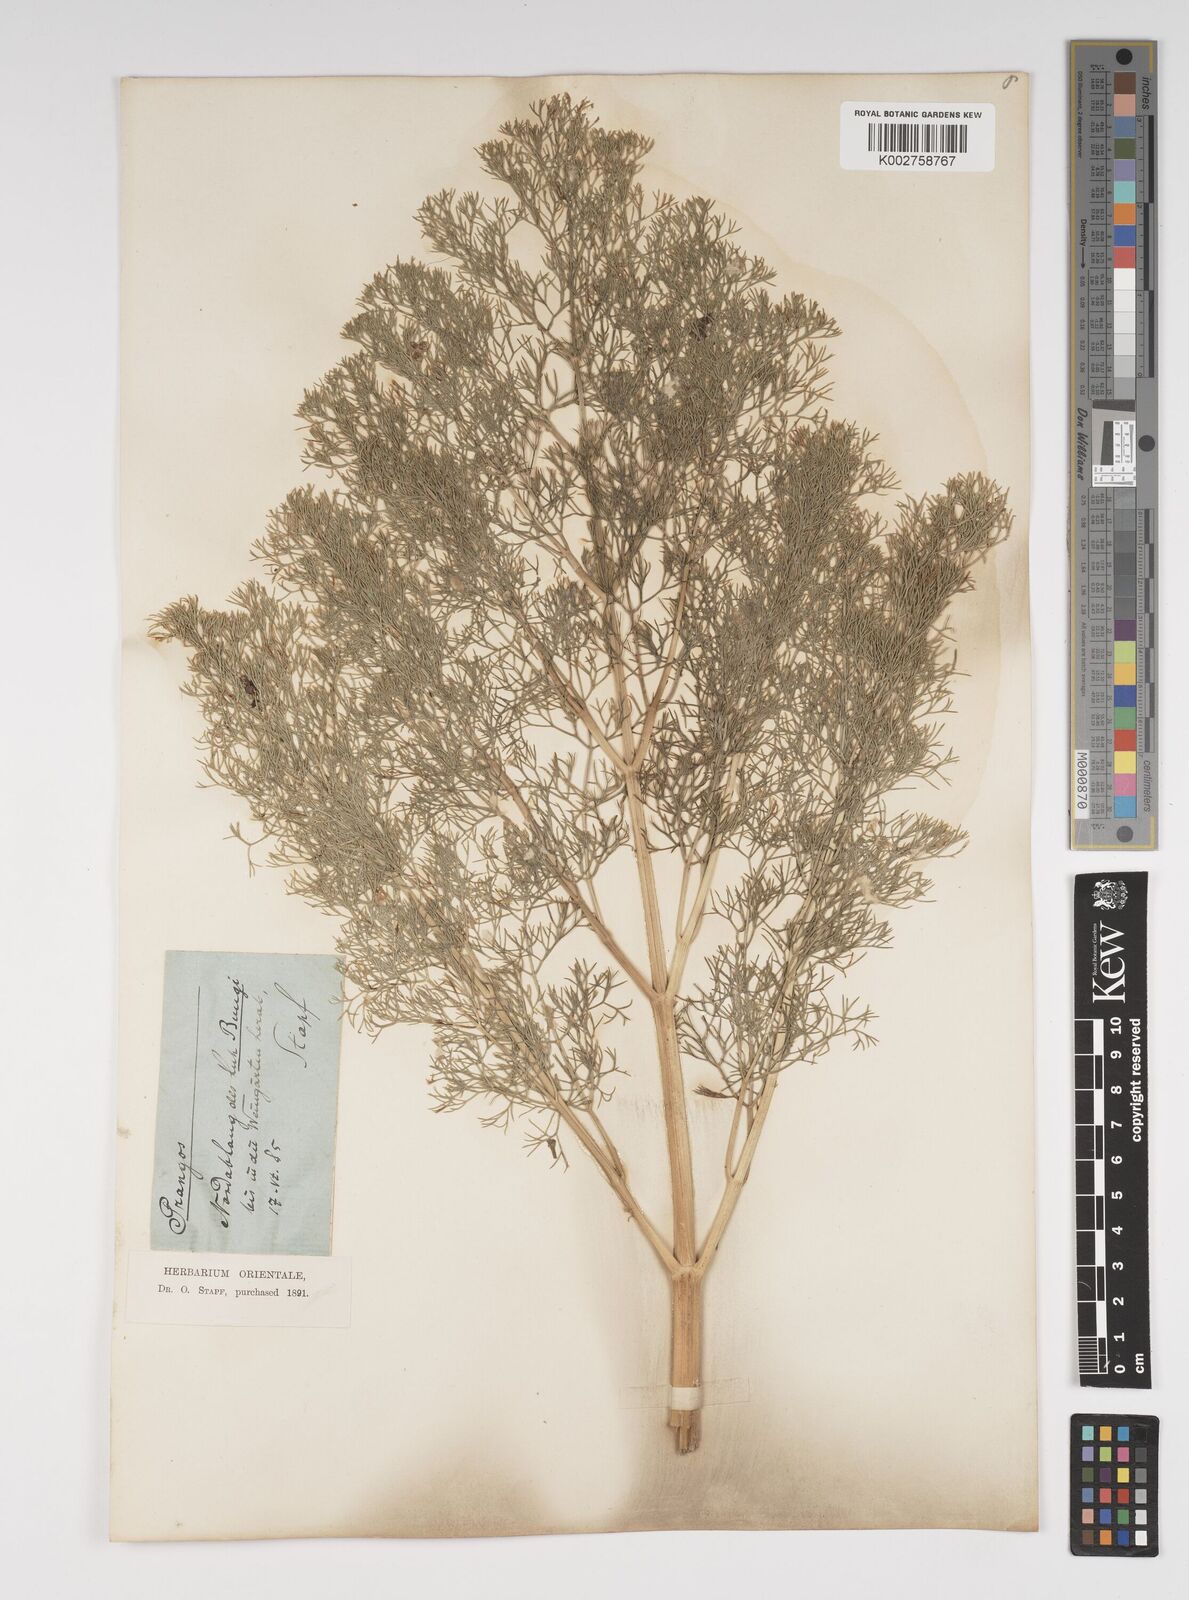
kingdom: Plantae
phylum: Tracheophyta
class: Magnoliopsida
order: Apiales
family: Apiaceae
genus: Cachrys
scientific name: Cachrys
